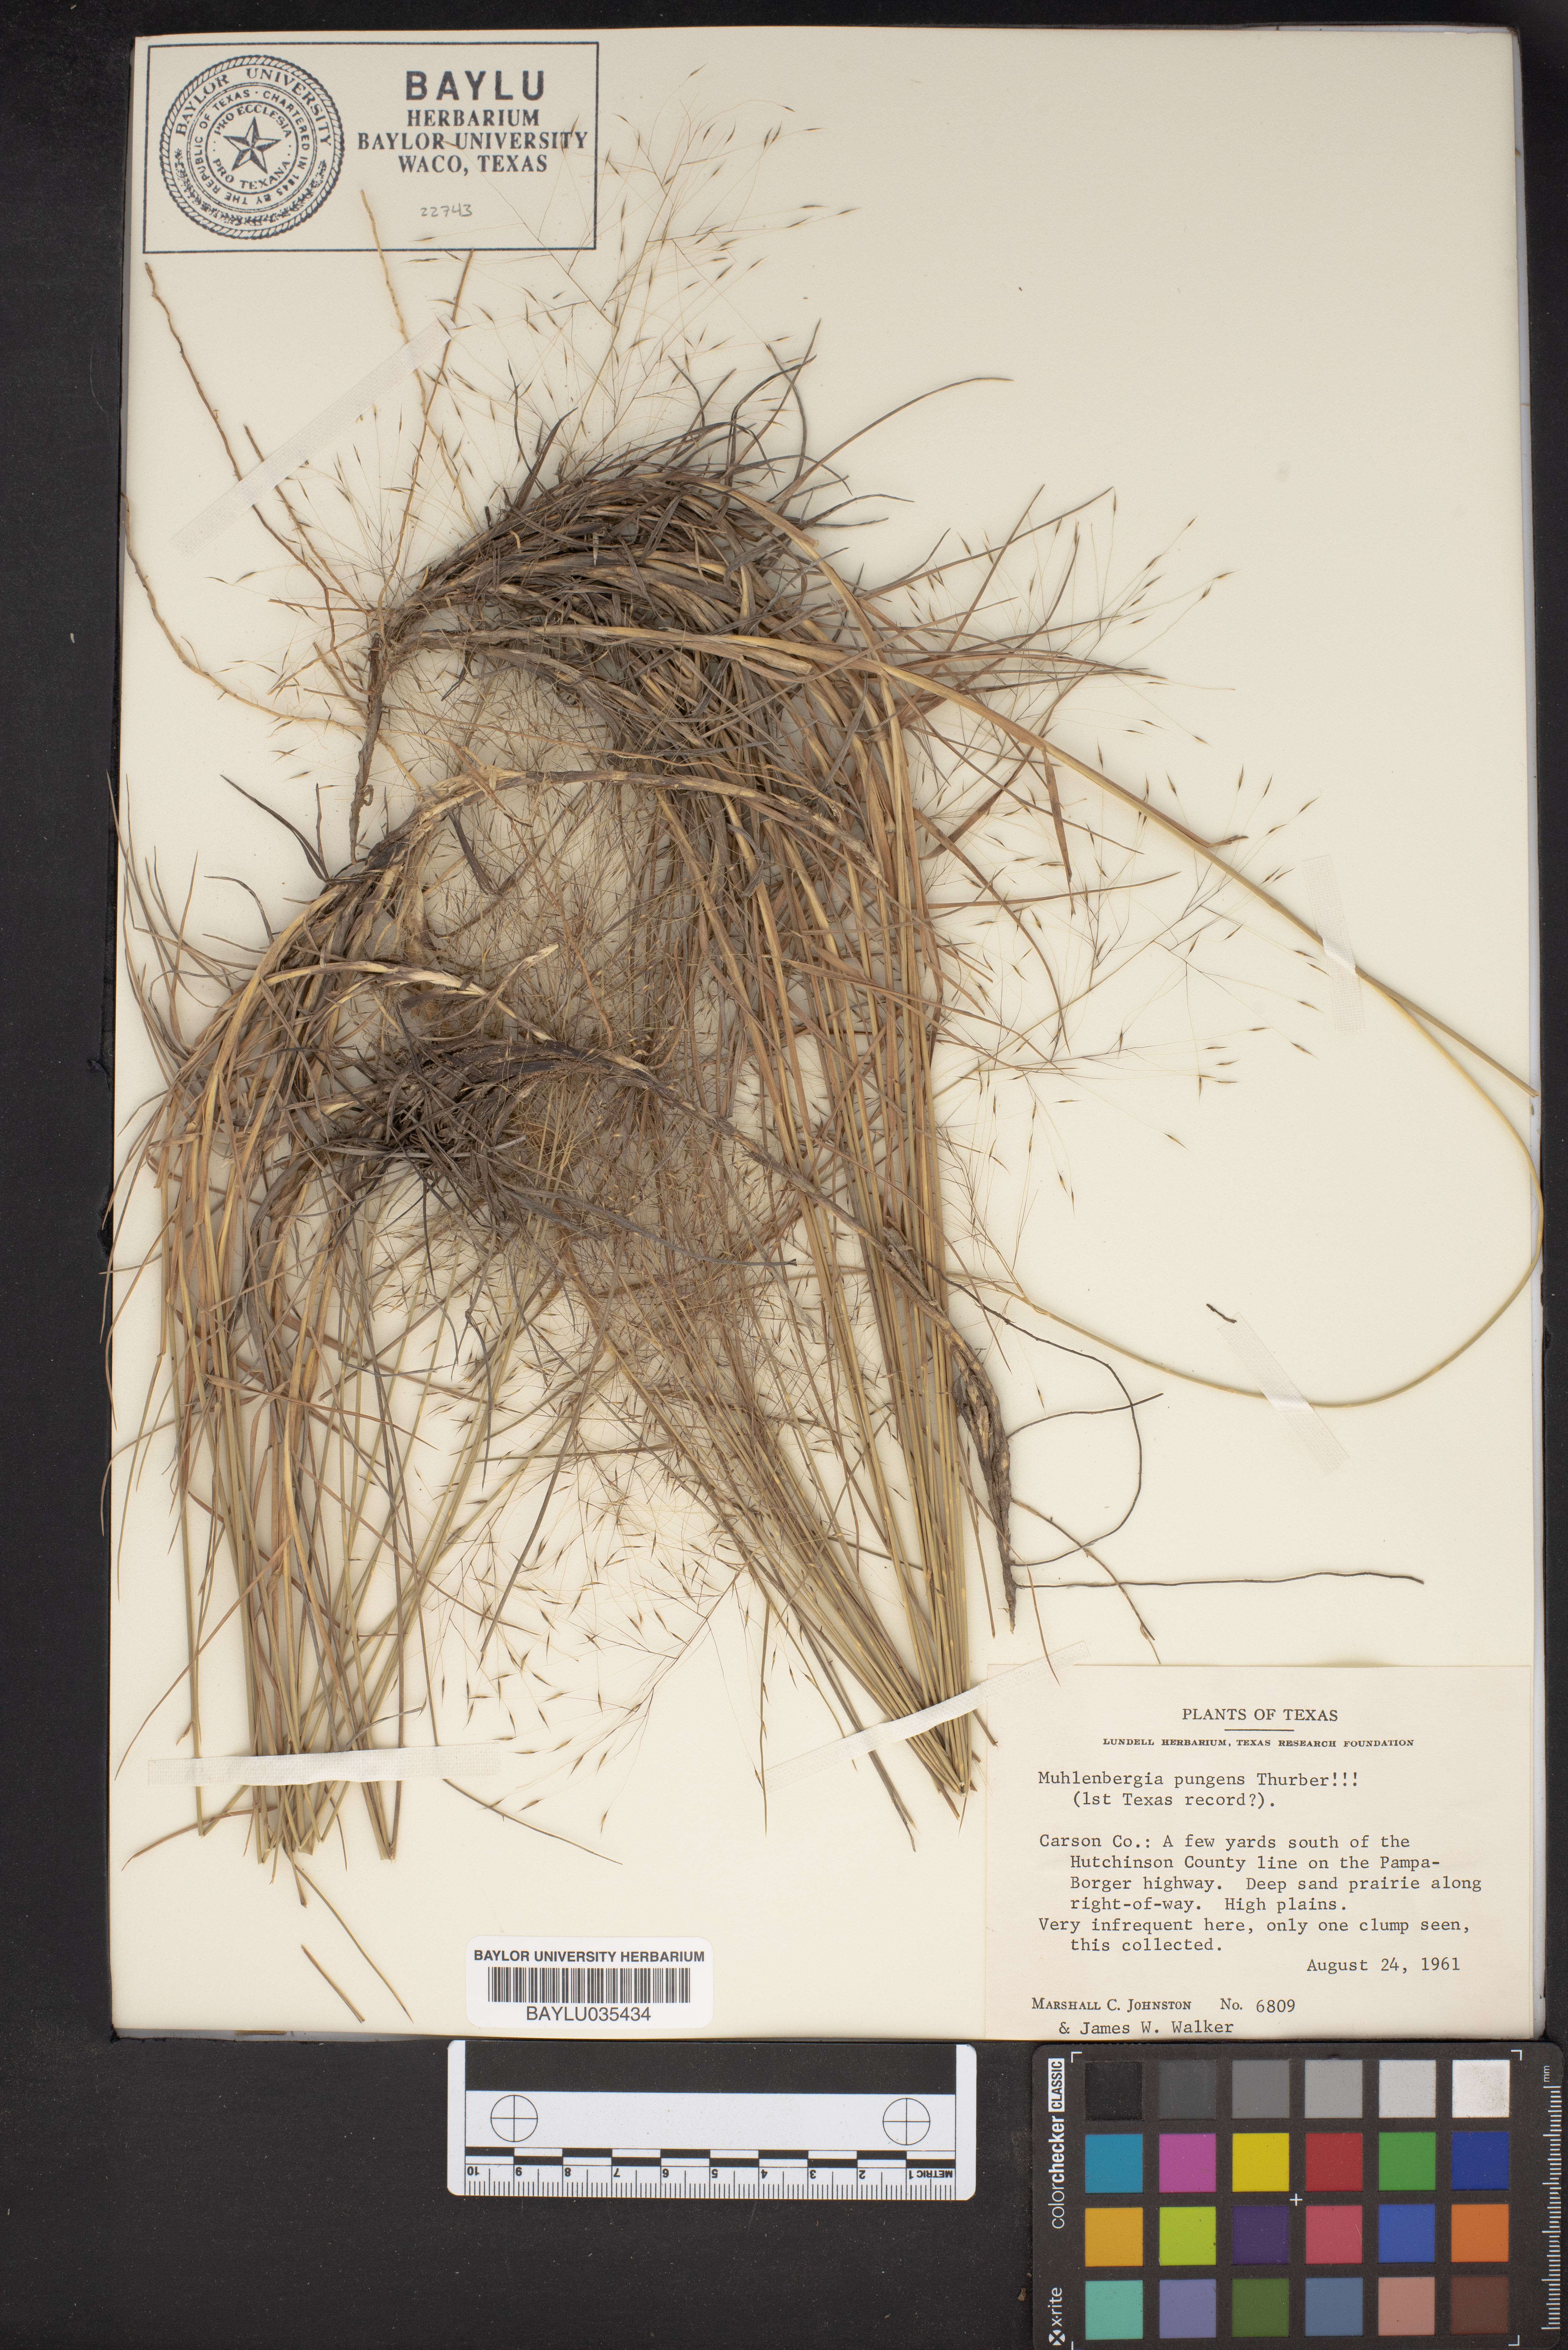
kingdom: Plantae
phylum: Tracheophyta
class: Liliopsida
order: Poales
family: Poaceae
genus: Muhlenbergia
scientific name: Muhlenbergia pungens
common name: Sandhill muhly
